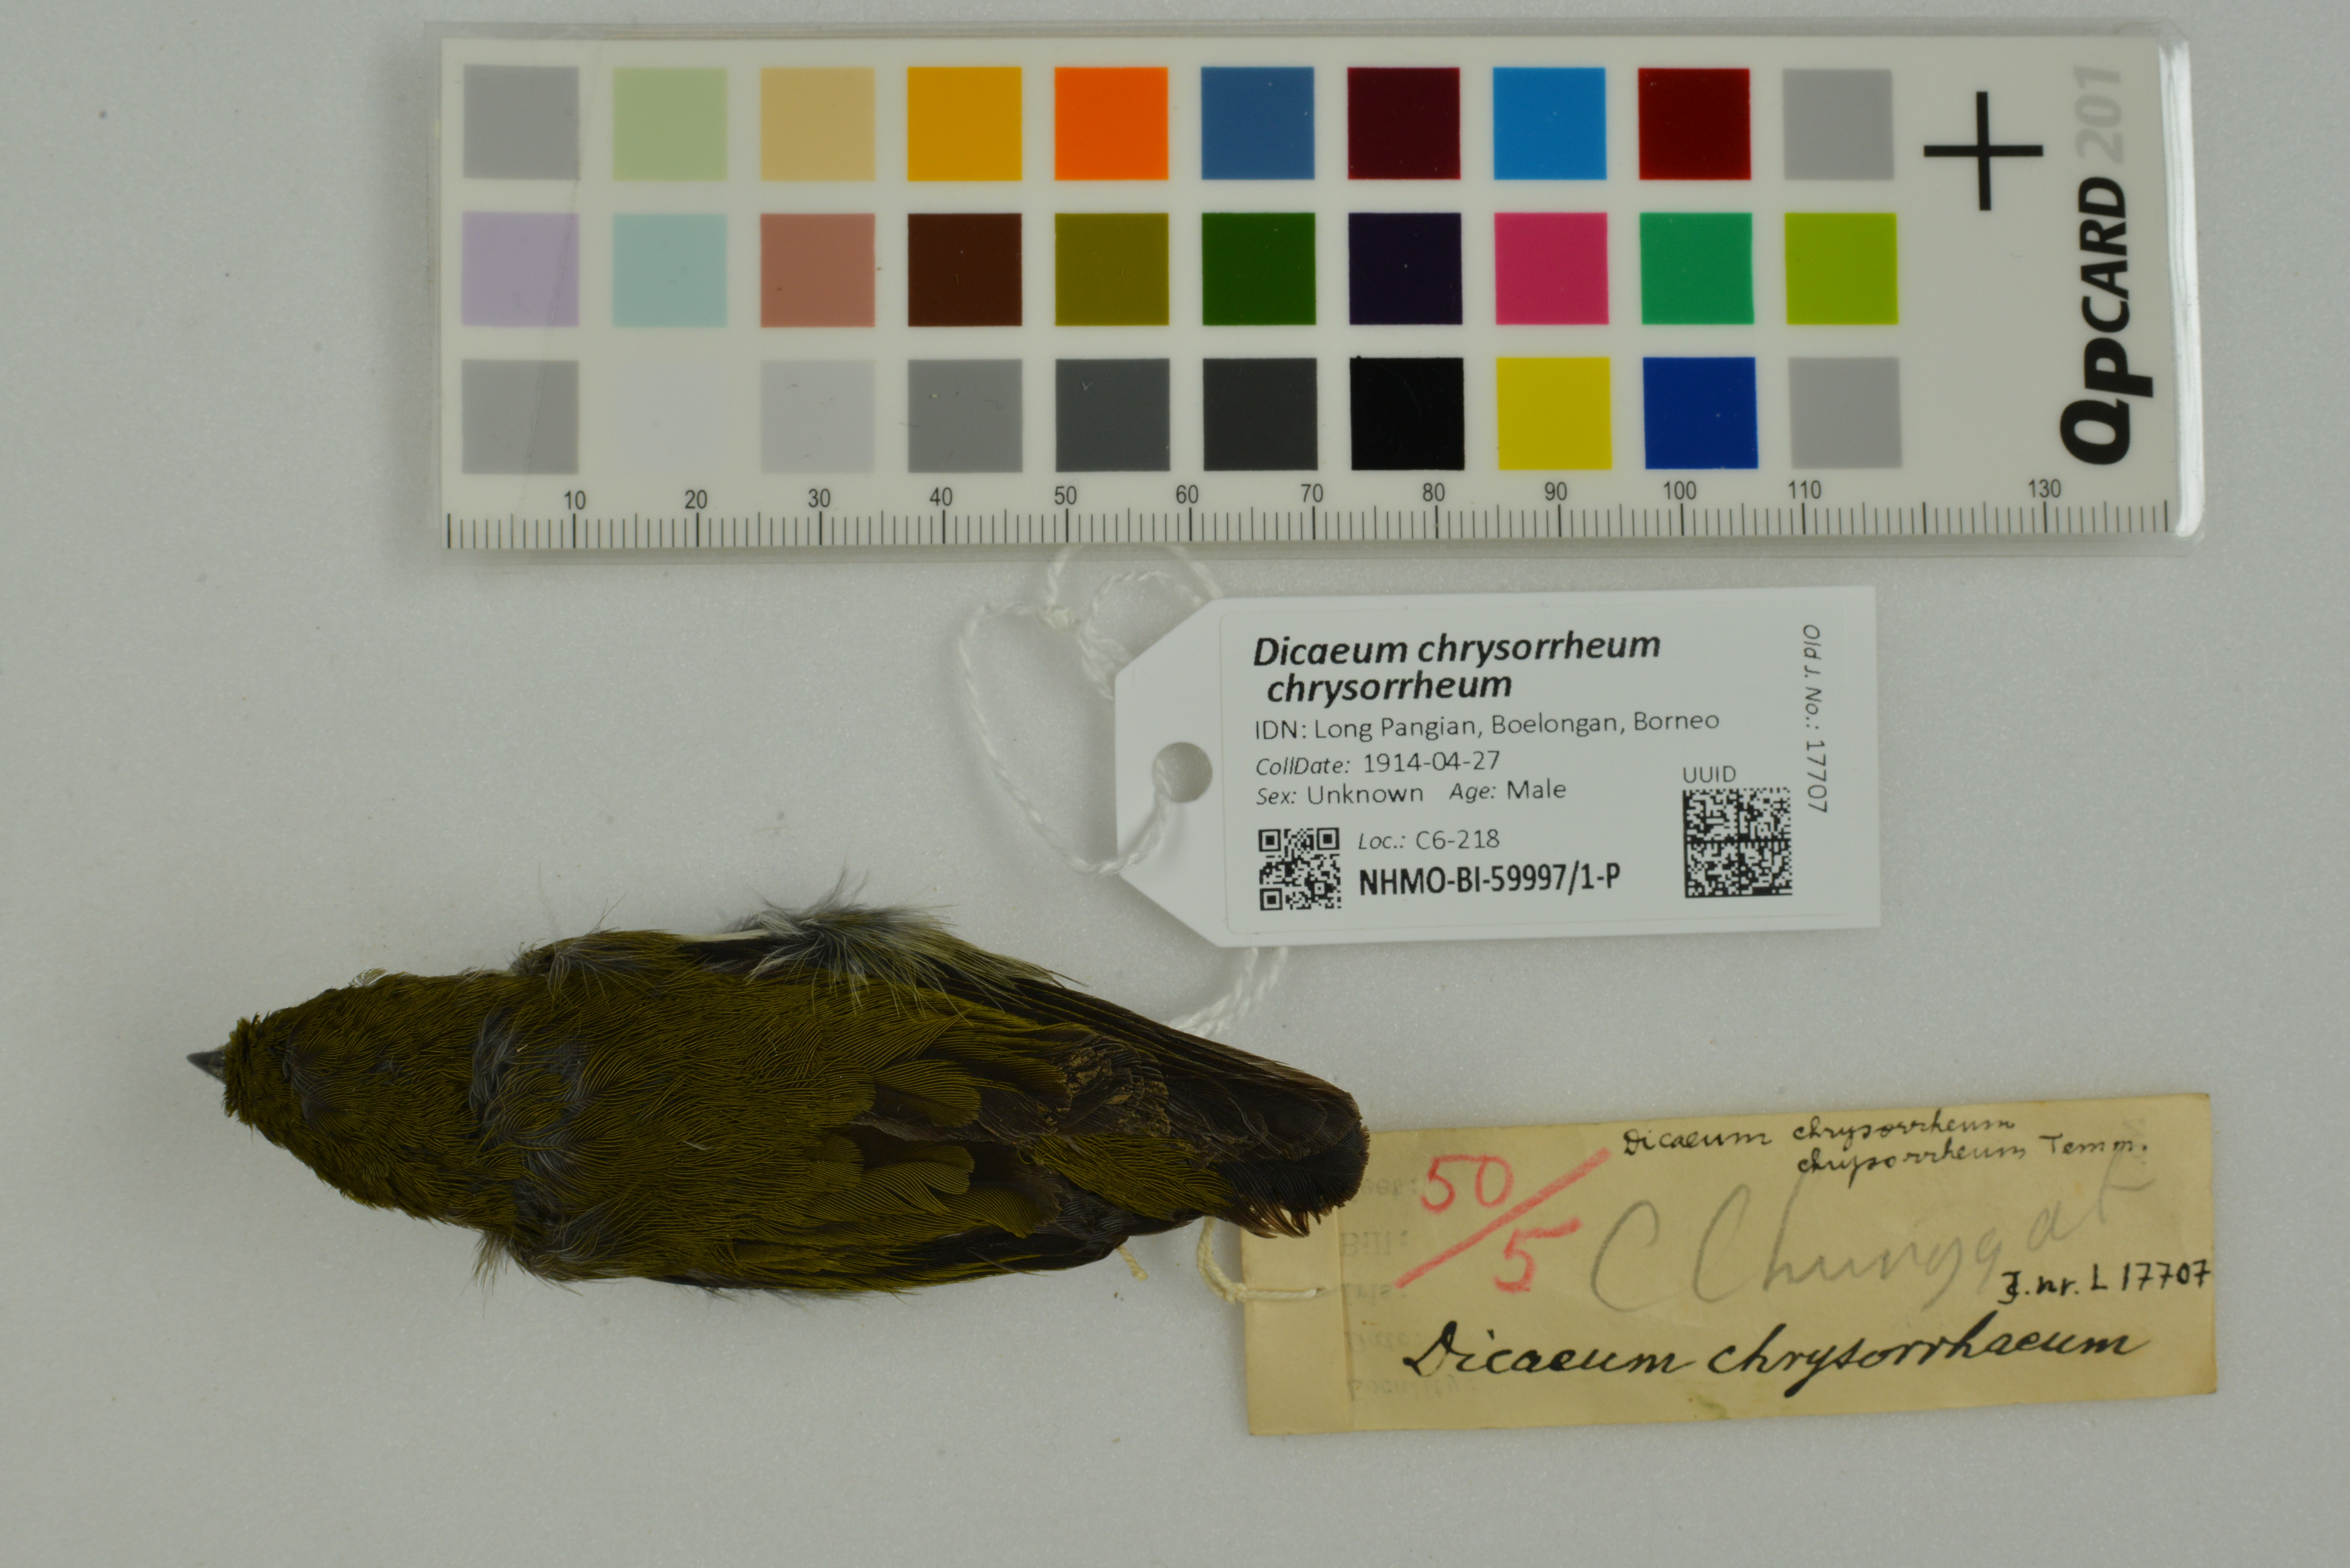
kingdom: Animalia
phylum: Chordata
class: Aves
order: Passeriformes
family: Dicaeidae
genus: Dicaeum
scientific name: Dicaeum chrysorrheum
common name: Yellow-vented flowerpecker
